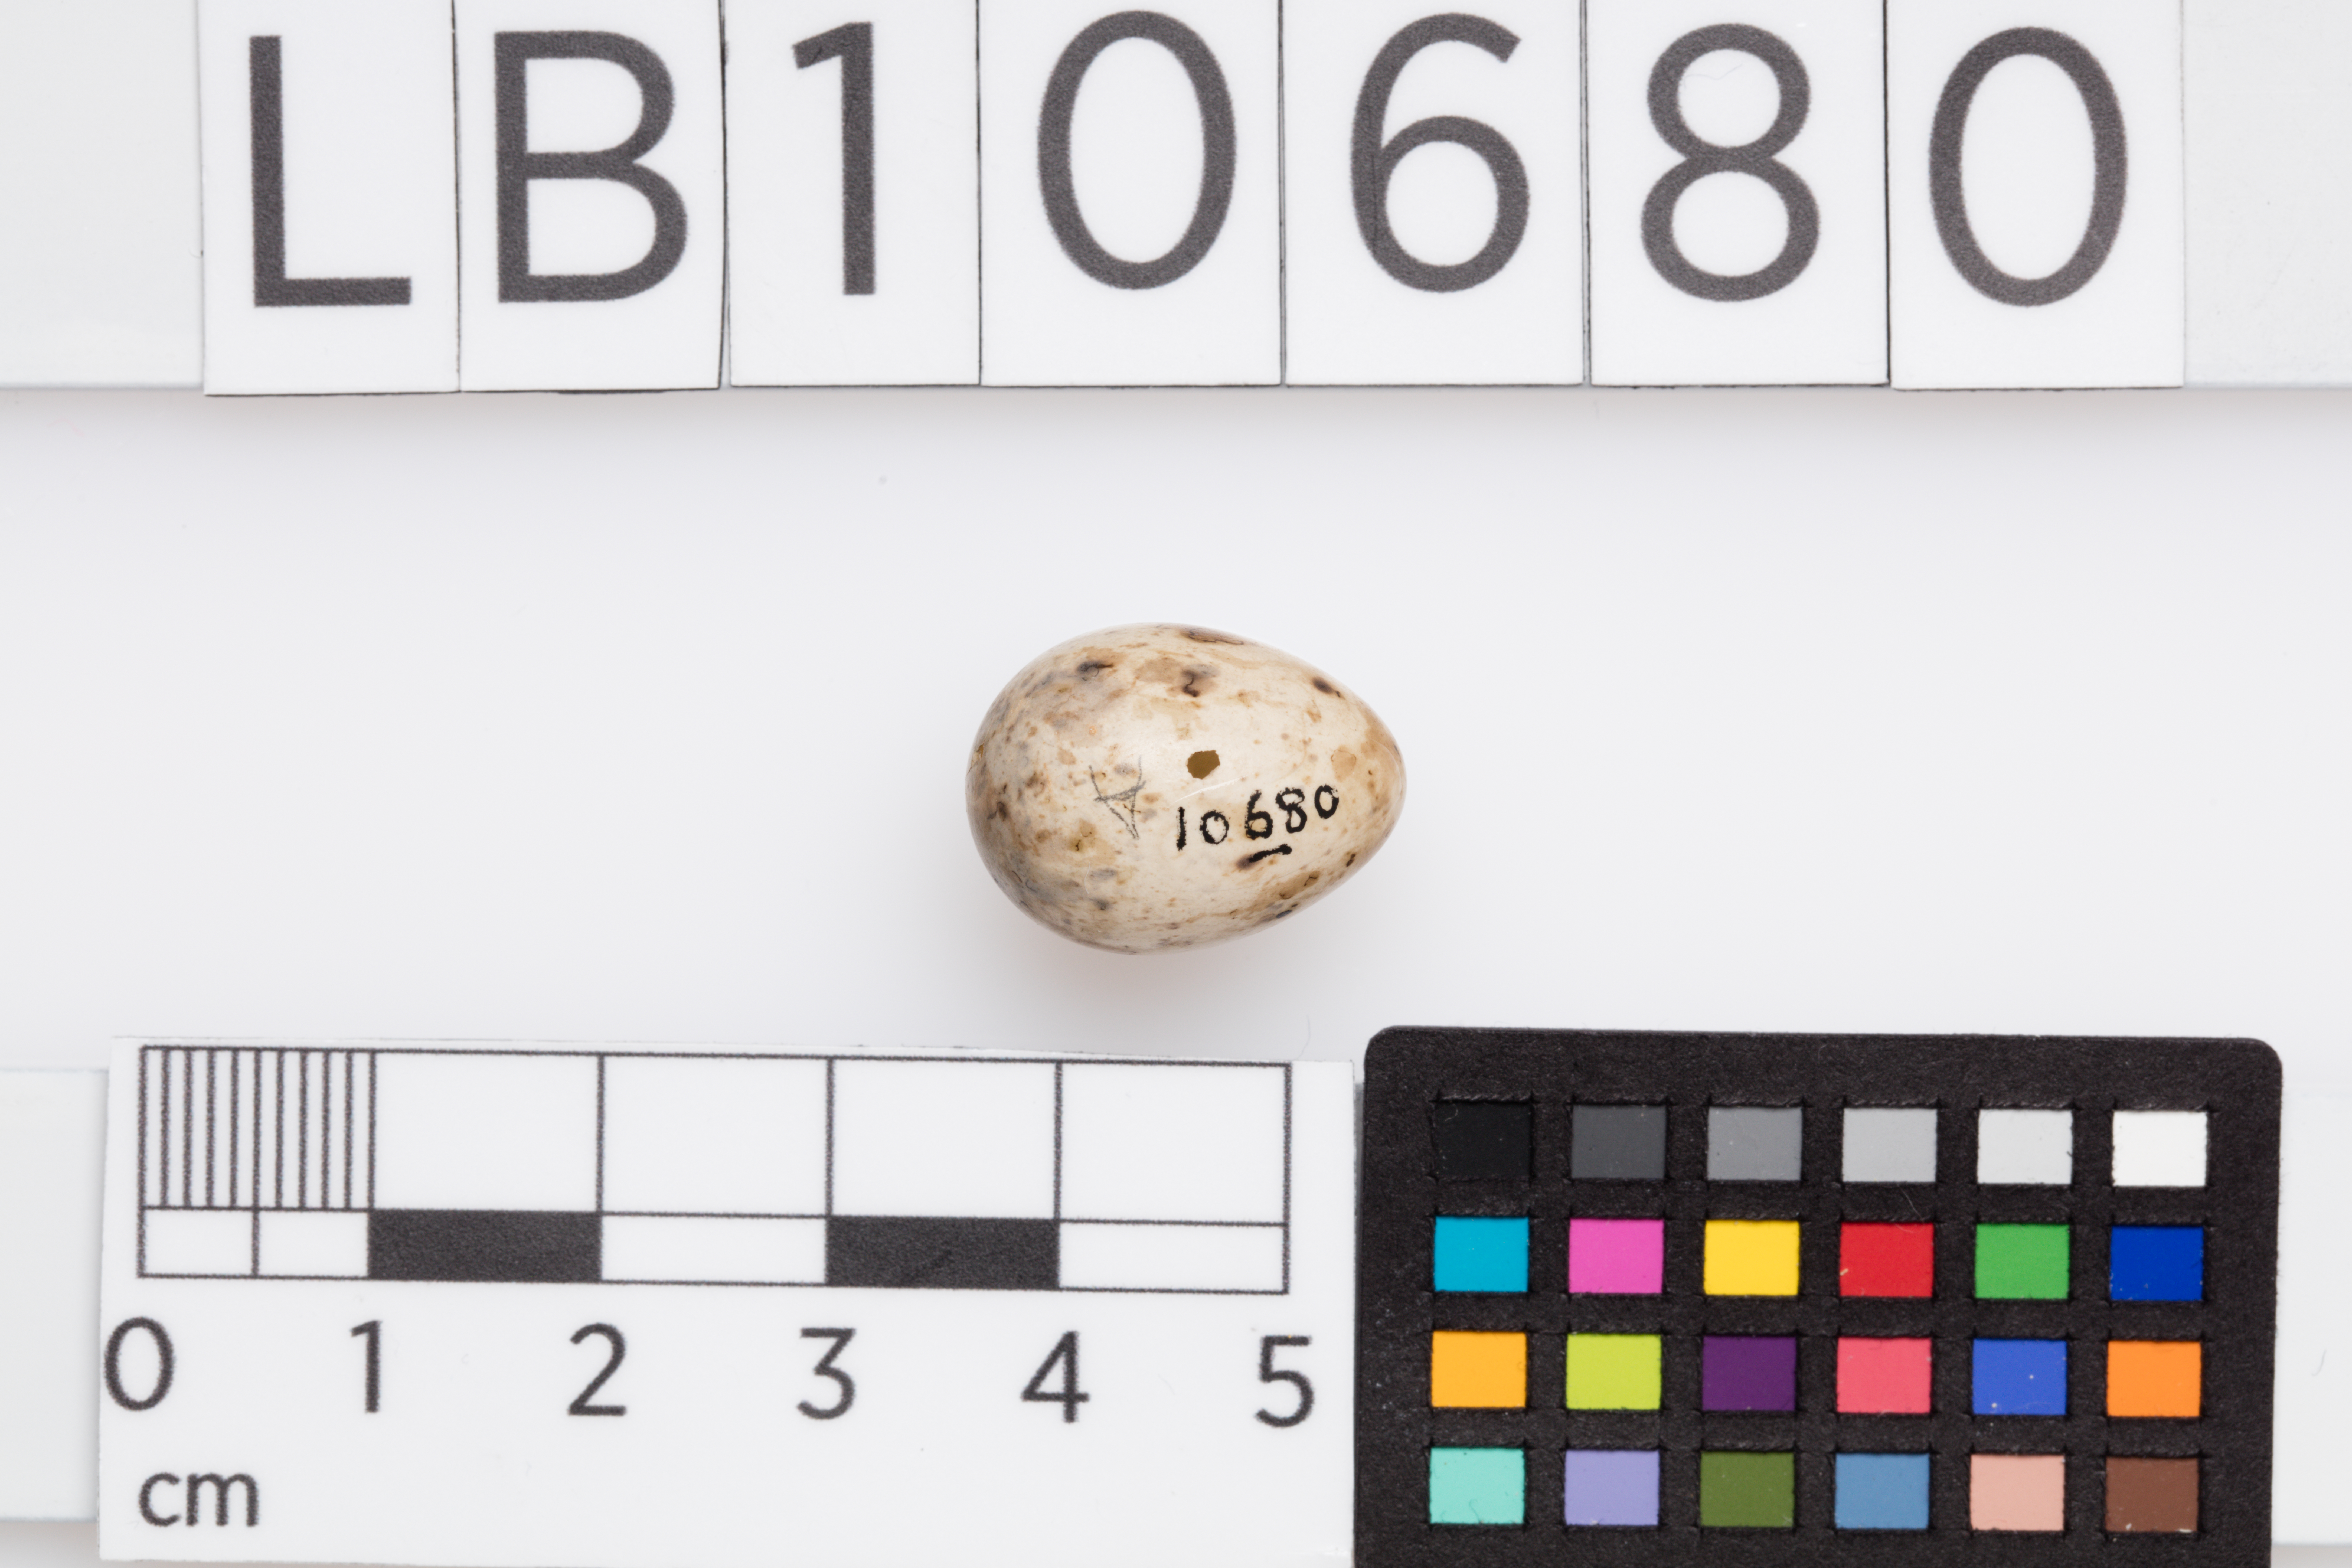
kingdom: Animalia
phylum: Chordata
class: Aves
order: Passeriformes
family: Sylviidae
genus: Sylvia
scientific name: Sylvia atricapilla
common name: Eurasian blackcap
